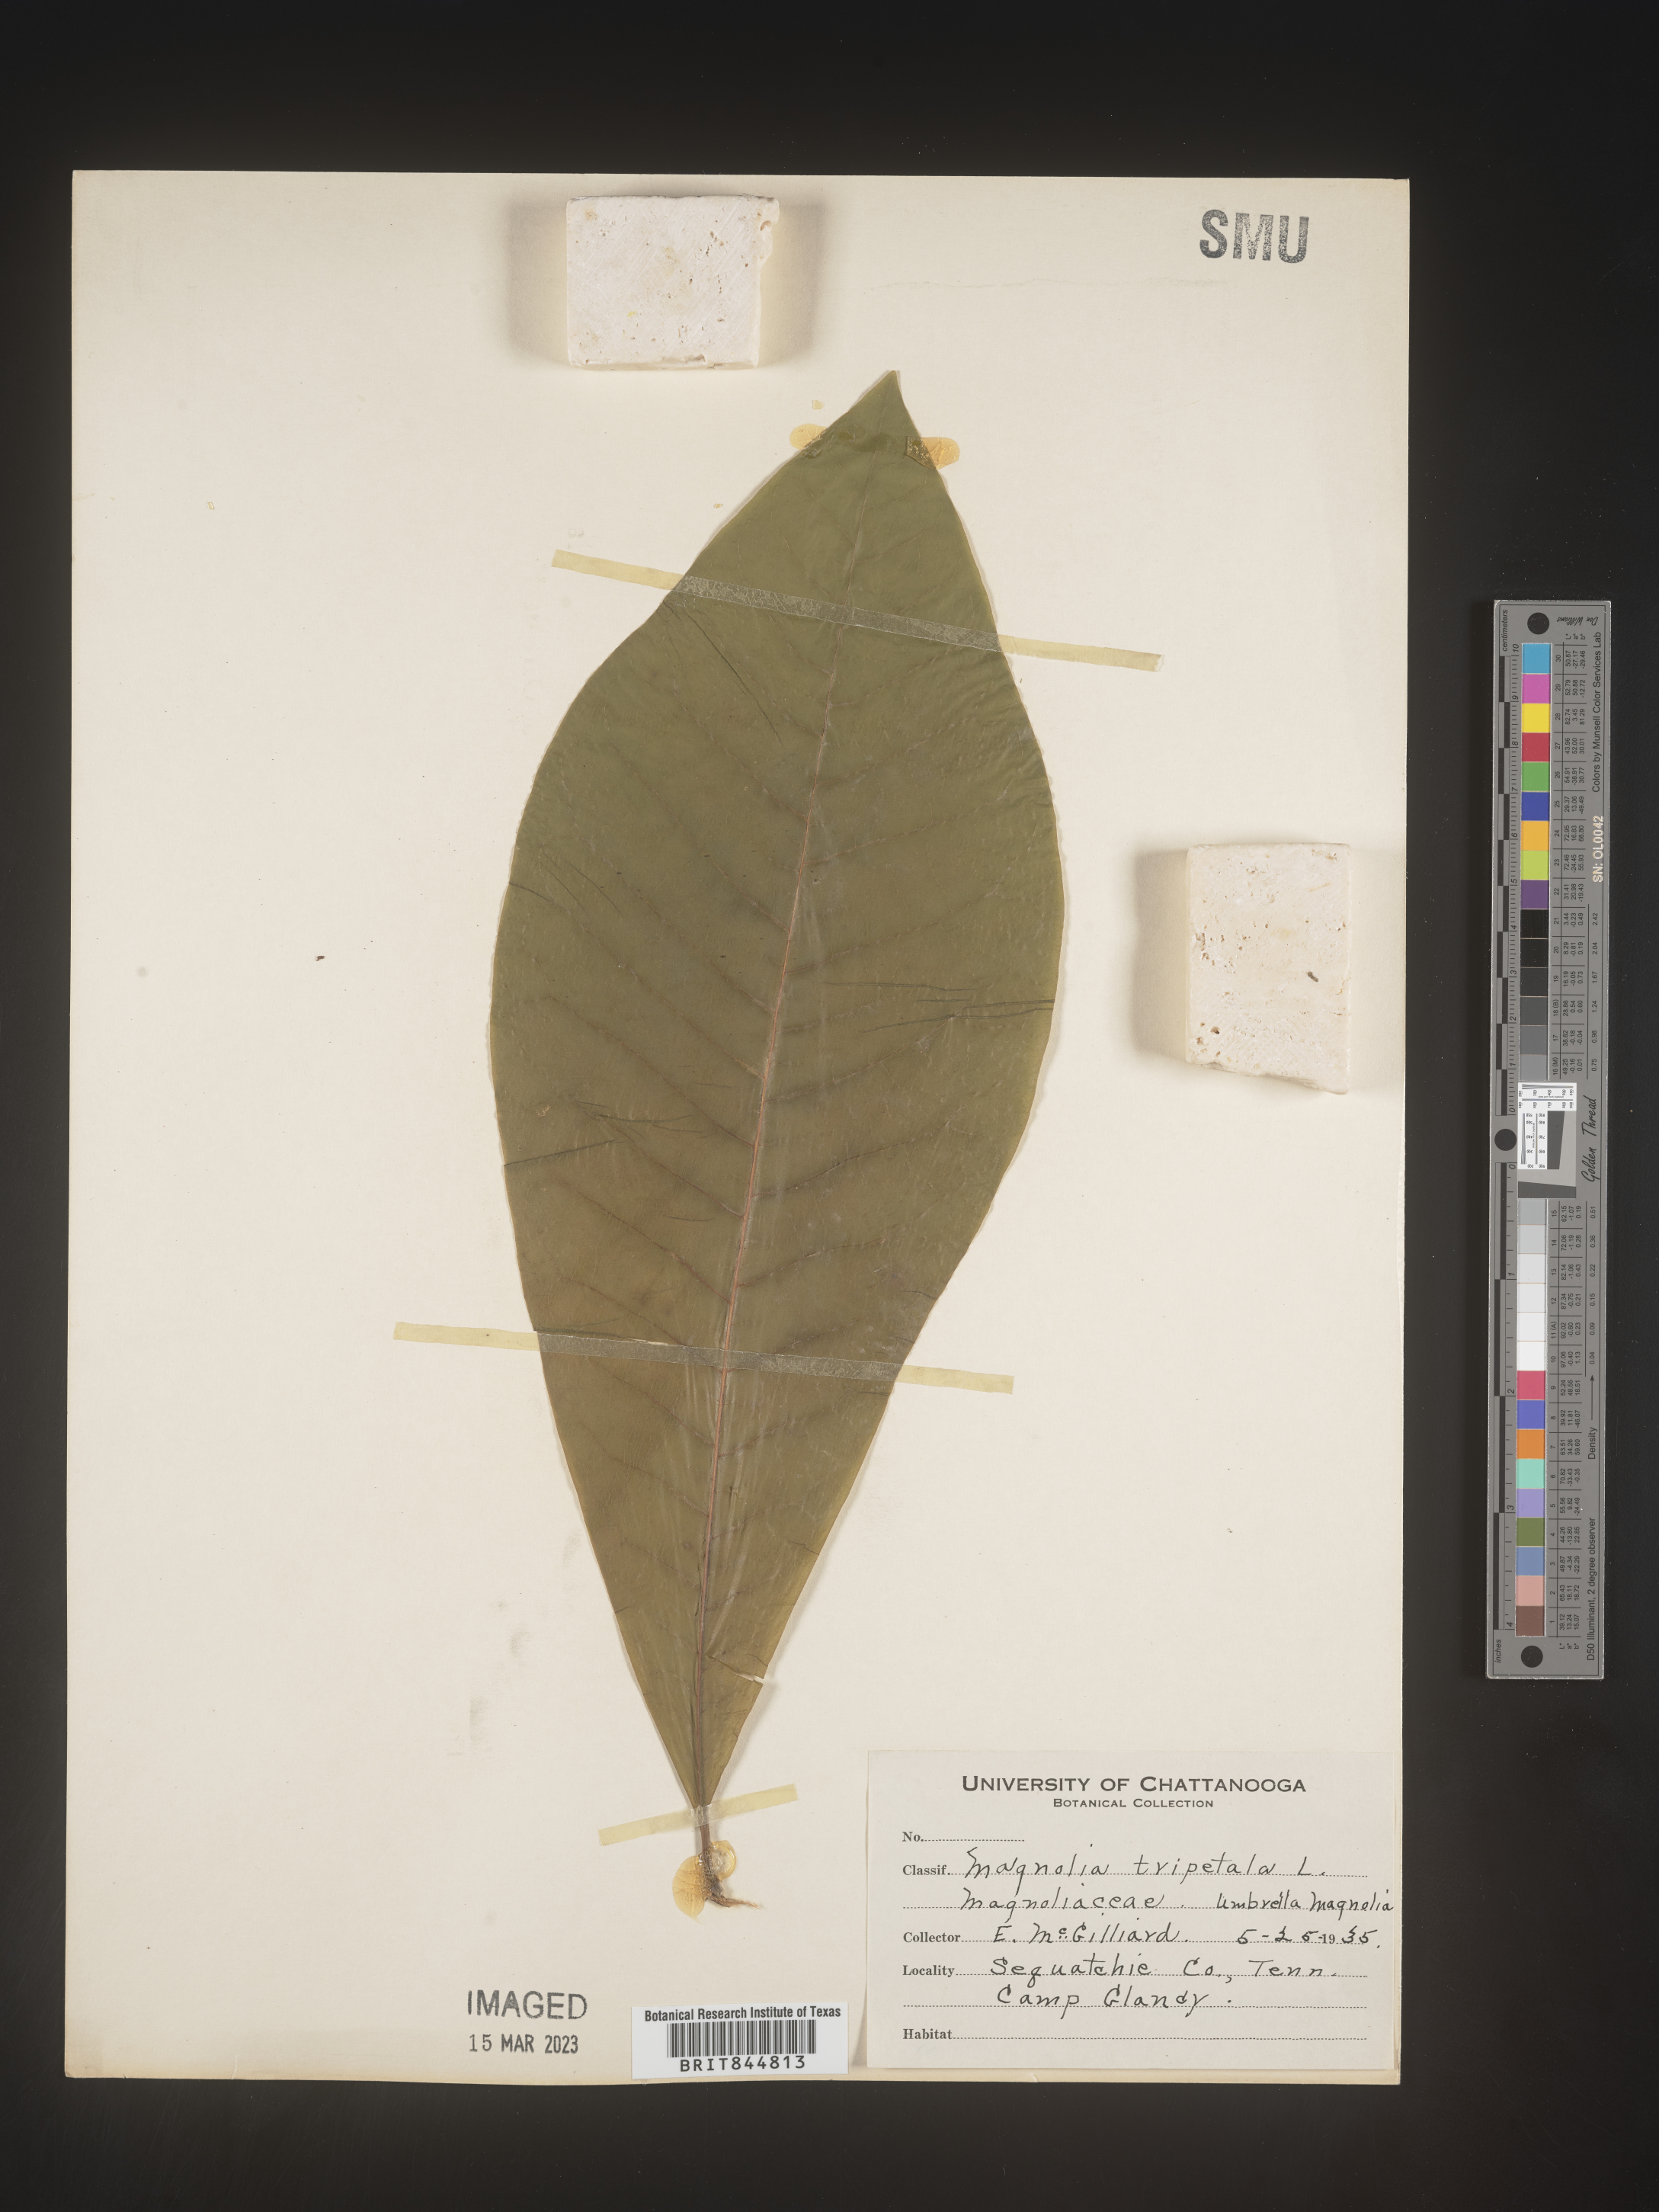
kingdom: Plantae
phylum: Tracheophyta
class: Magnoliopsida
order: Magnoliales
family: Magnoliaceae
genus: Magnolia
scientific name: Magnolia tripetala
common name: Umbrella magnolia
